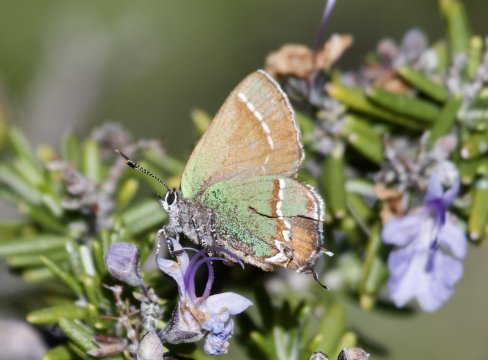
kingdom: Animalia
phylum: Arthropoda
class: Insecta
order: Lepidoptera
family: Lycaenidae
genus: Mitoura
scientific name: Mitoura gryneus
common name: Juniper Hairstreak
